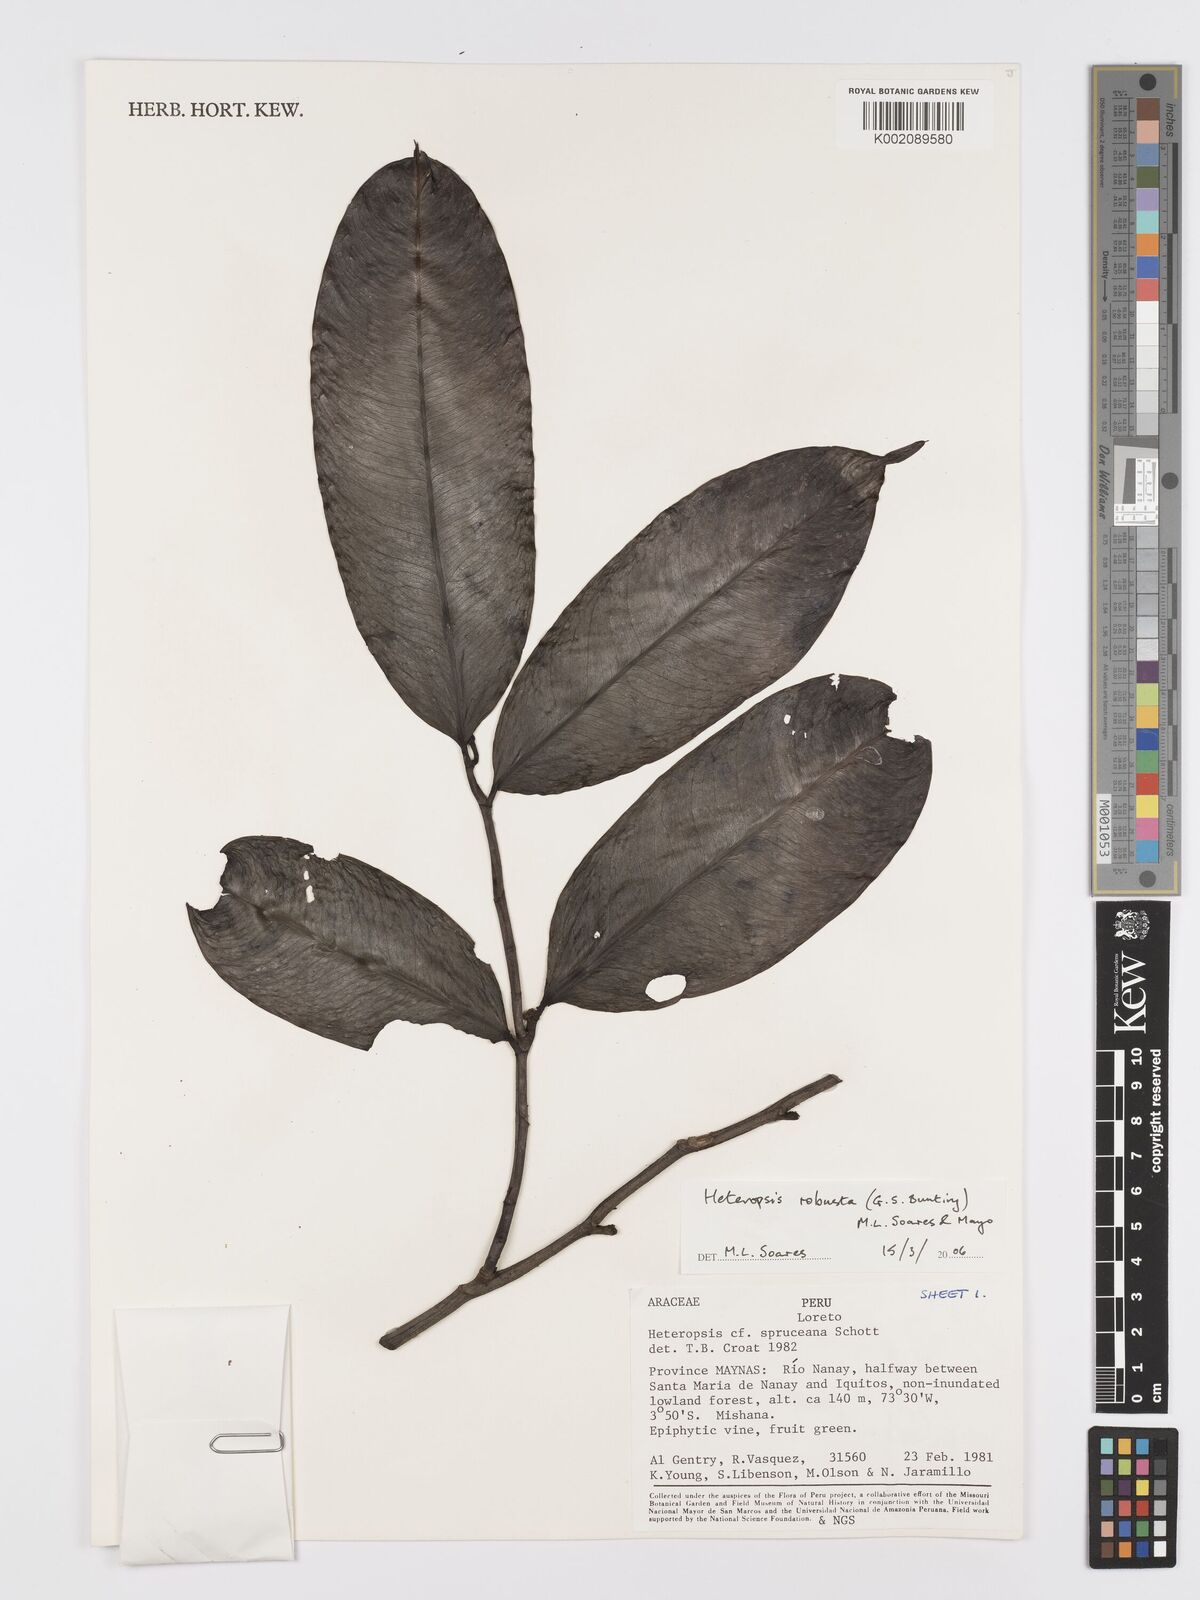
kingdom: Plantae
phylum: Tracheophyta
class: Liliopsida
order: Alismatales
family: Araceae
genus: Heteropsis
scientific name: Heteropsis robusta
